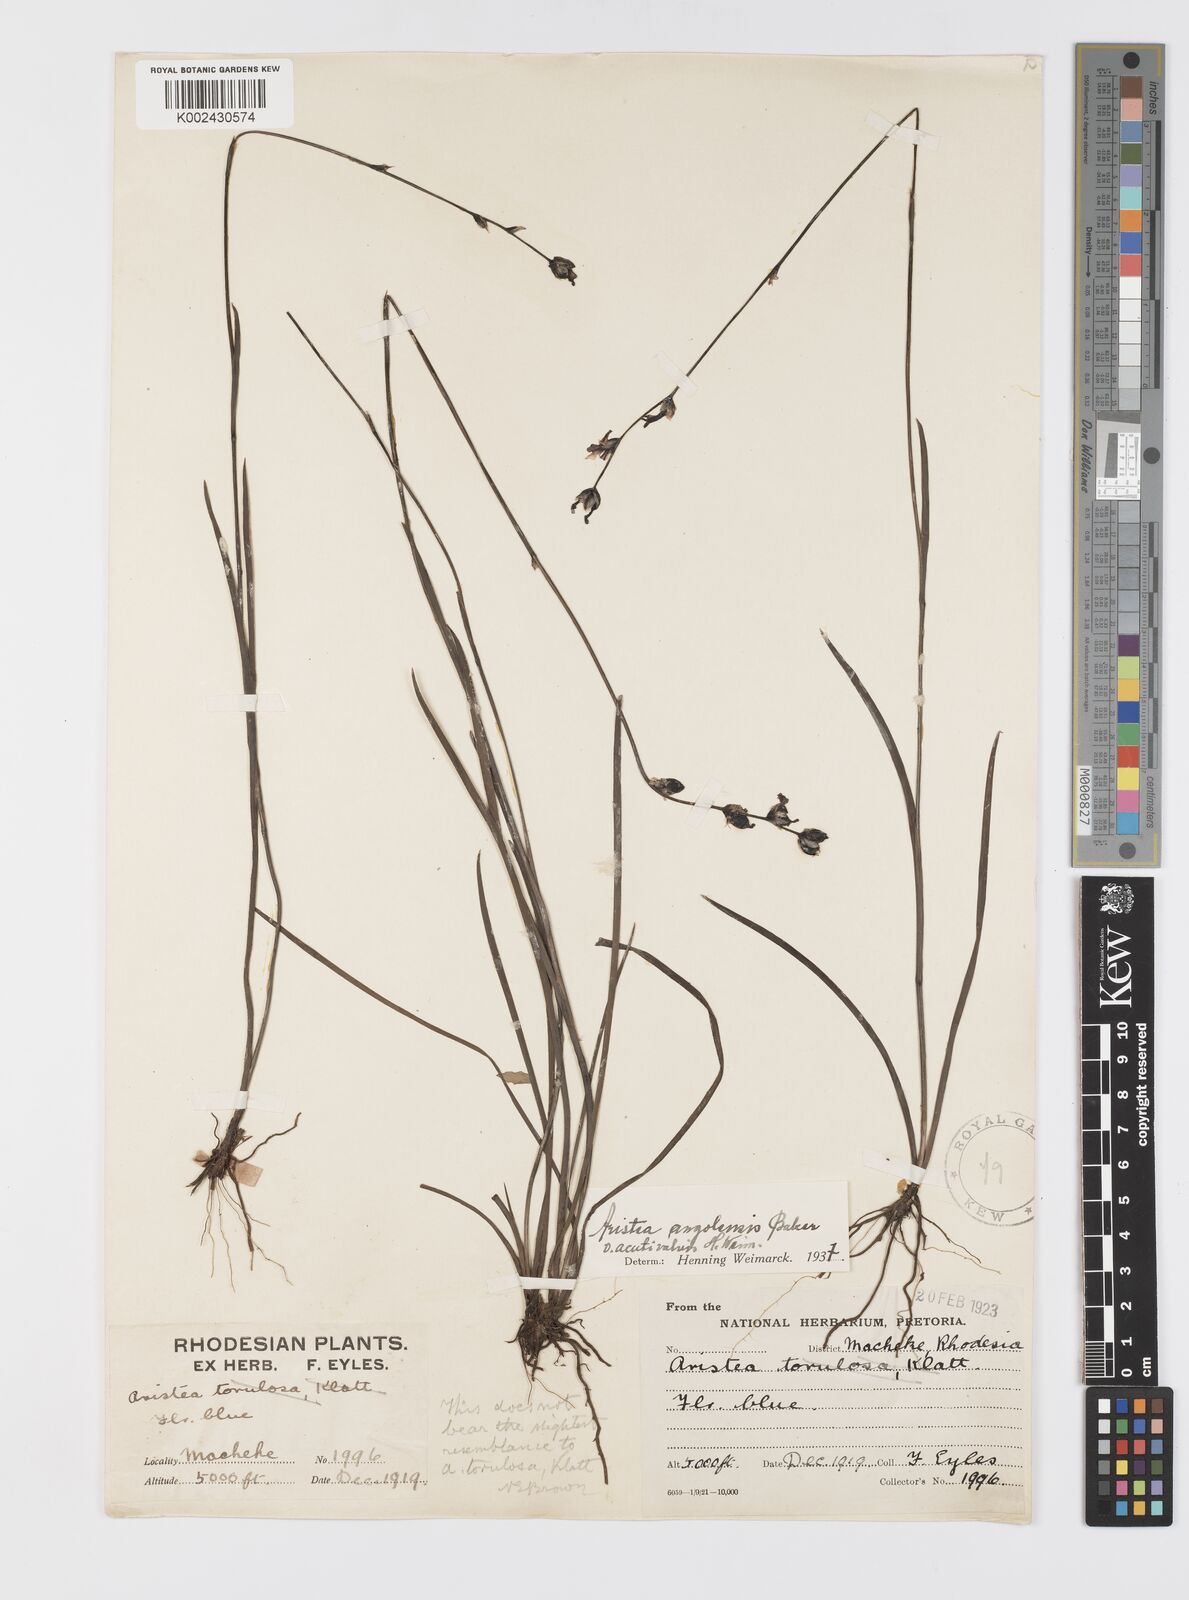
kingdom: Plantae
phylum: Tracheophyta
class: Liliopsida
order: Asparagales
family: Iridaceae
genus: Aristea
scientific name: Aristea angolensis
